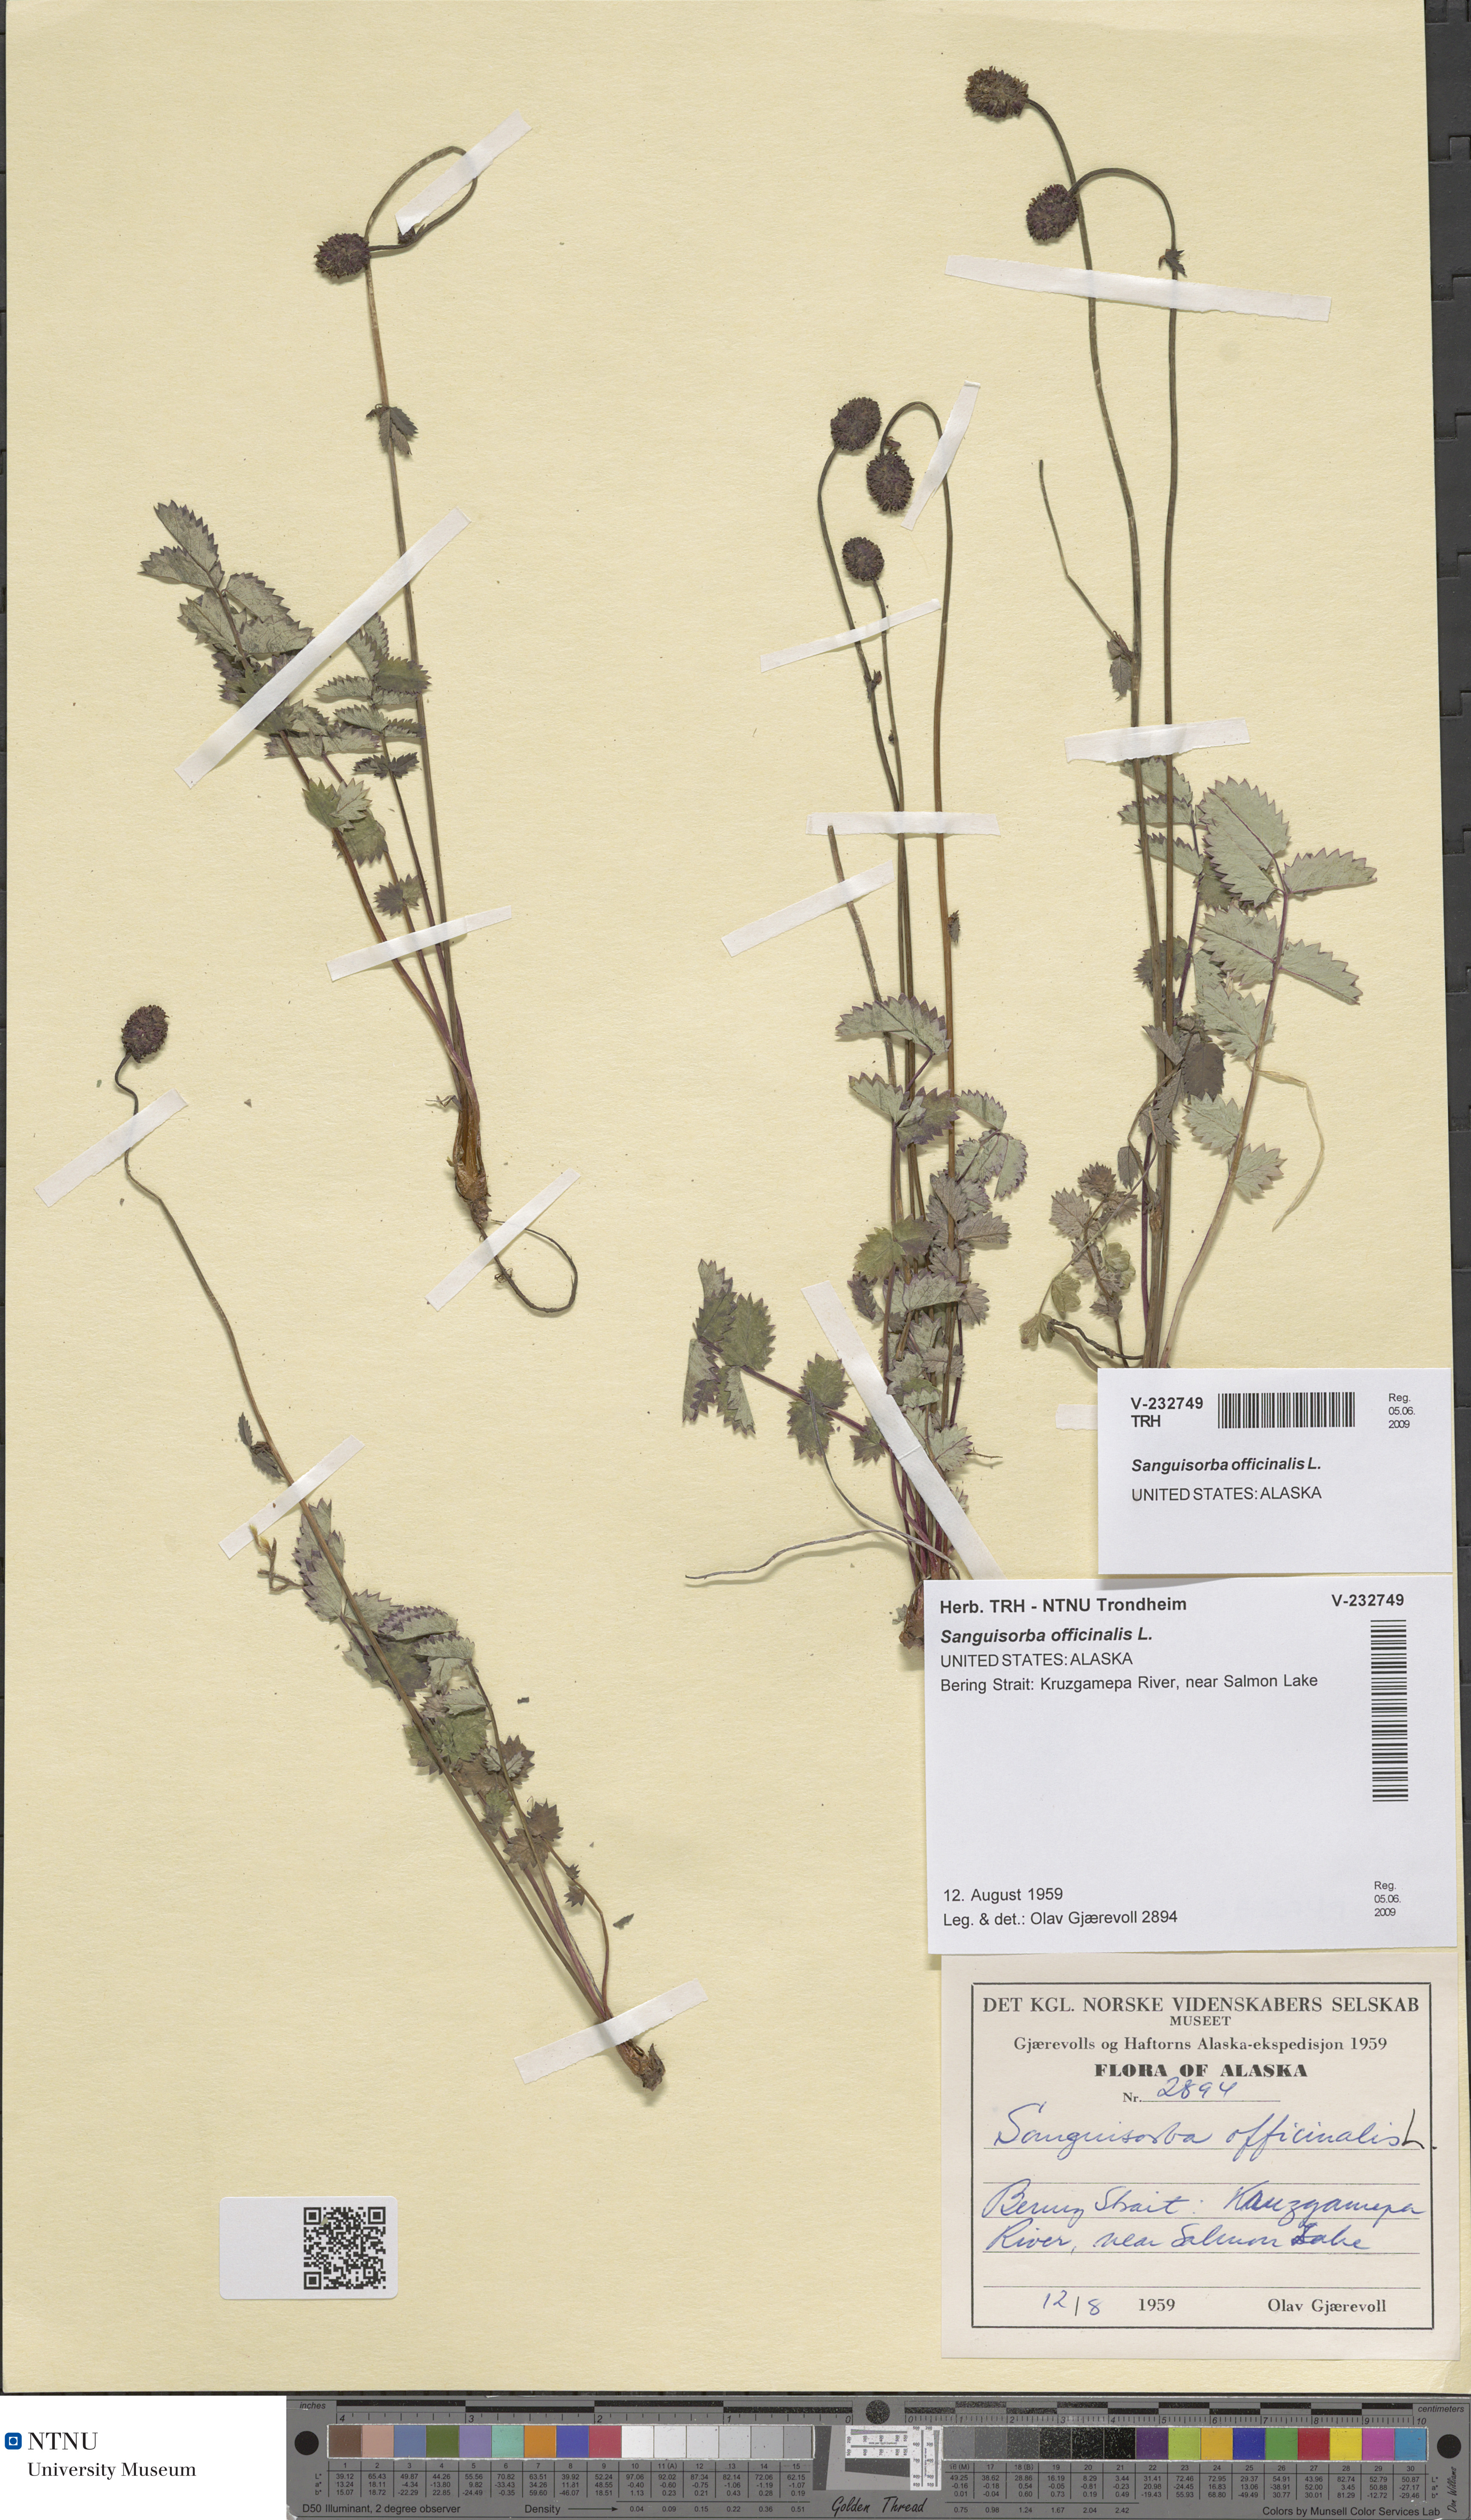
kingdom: Plantae
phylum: Tracheophyta
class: Magnoliopsida
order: Rosales
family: Rosaceae
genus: Sanguisorba
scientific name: Sanguisorba officinalis
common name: Great burnet
